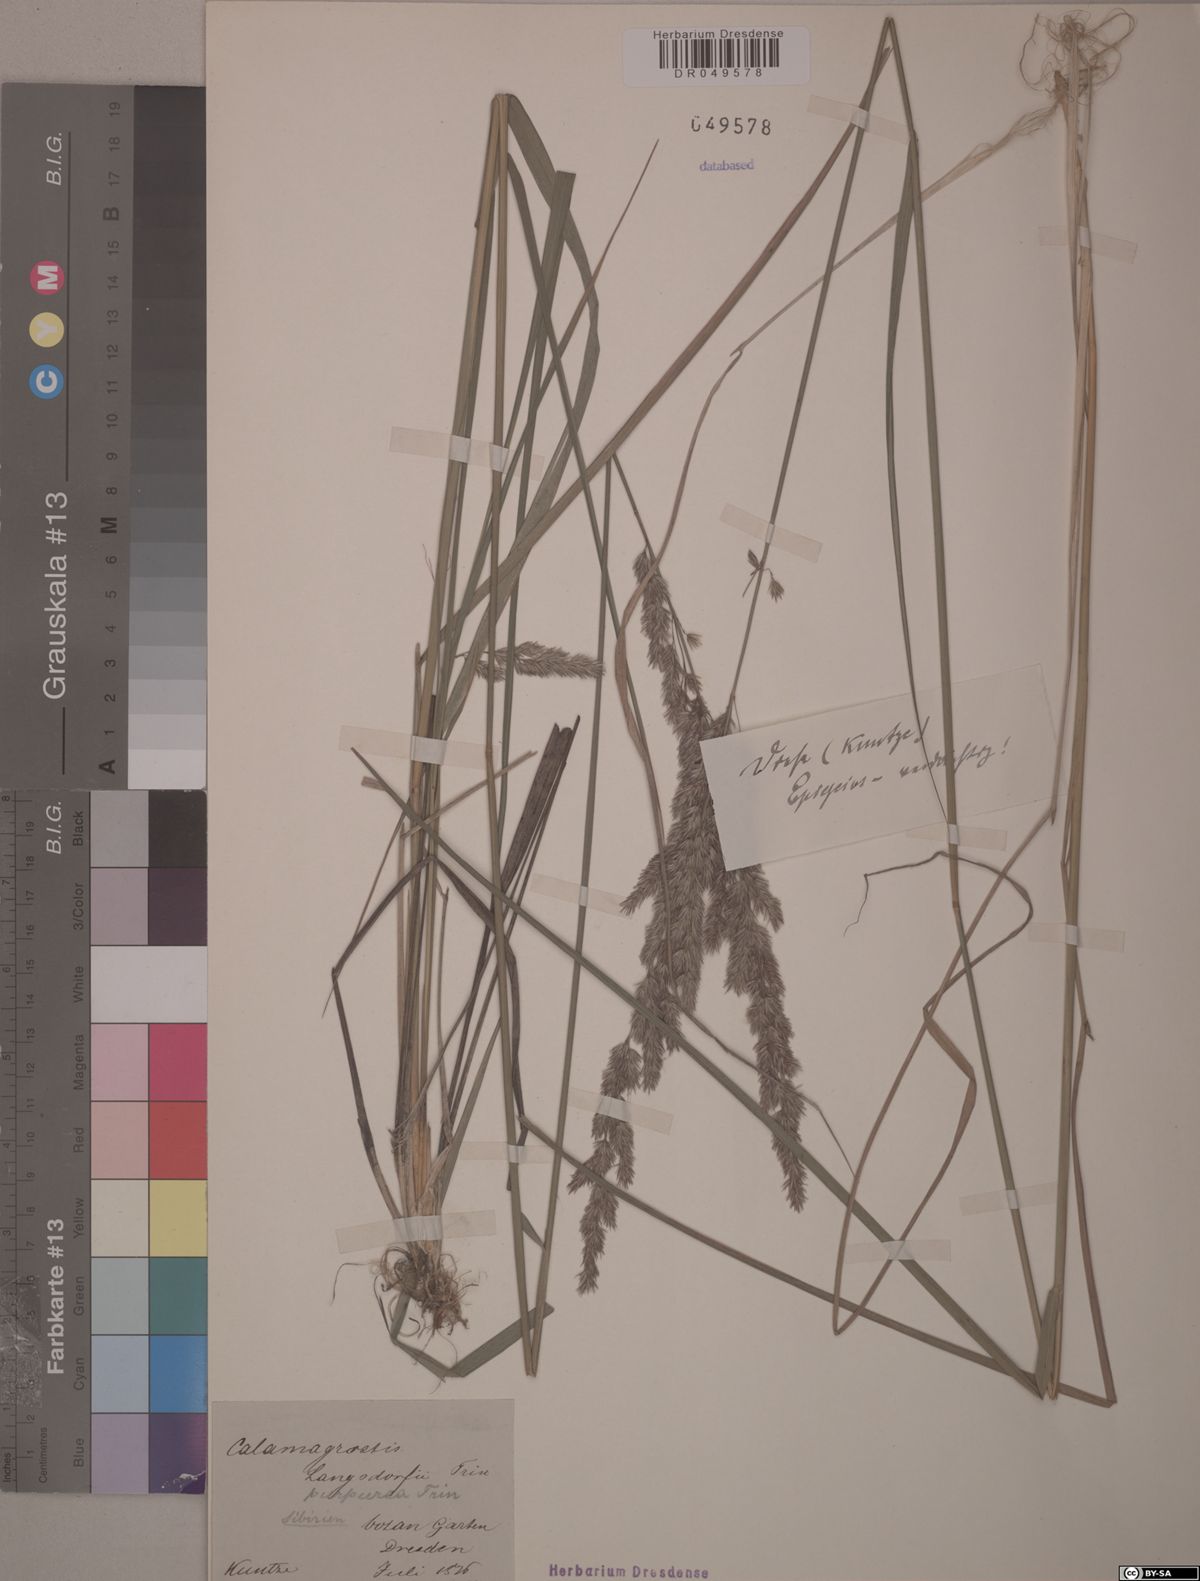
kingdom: Plantae
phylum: Tracheophyta
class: Liliopsida
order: Poales
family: Poaceae
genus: Calamagrostis
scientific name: Calamagrostis purpurea
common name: Scandinavian small-reed
